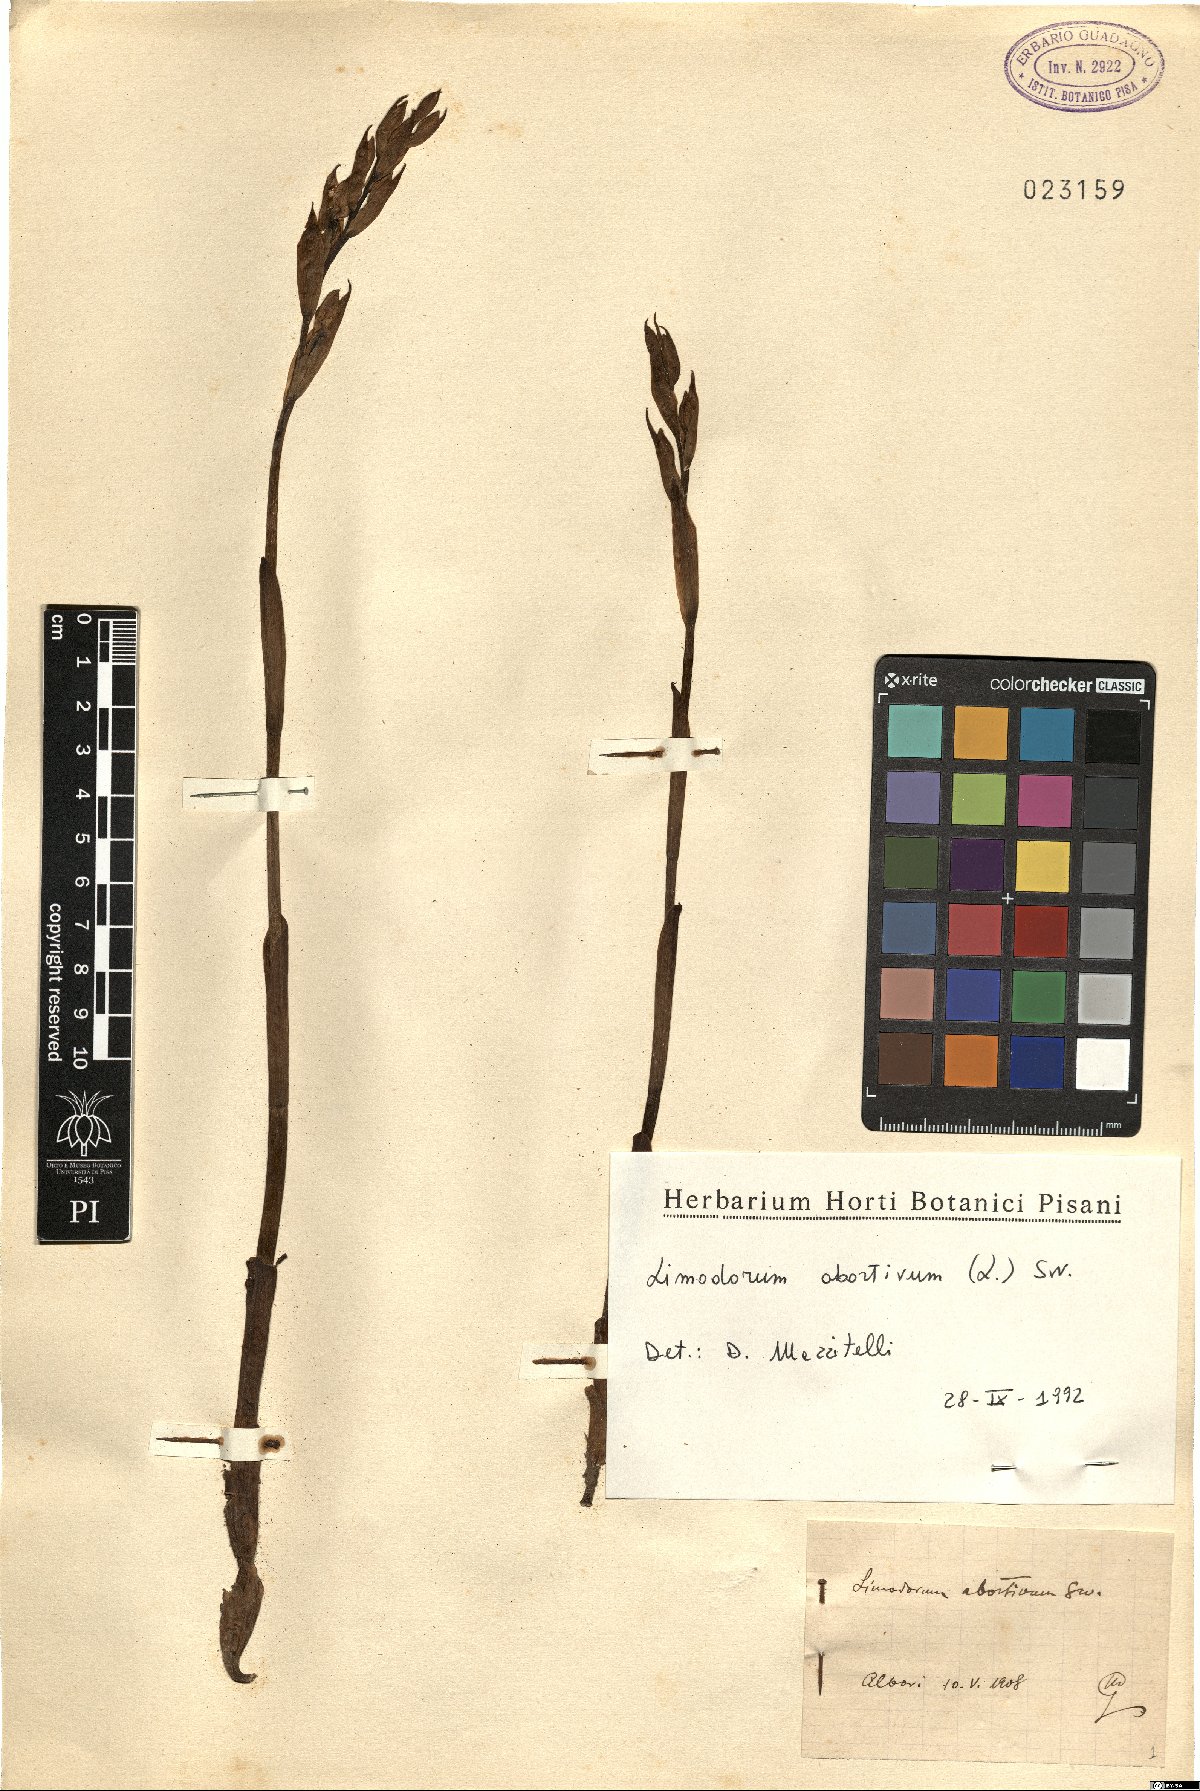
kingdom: Plantae
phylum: Tracheophyta
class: Liliopsida
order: Asparagales
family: Orchidaceae
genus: Limodorum
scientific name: Limodorum abortivum
